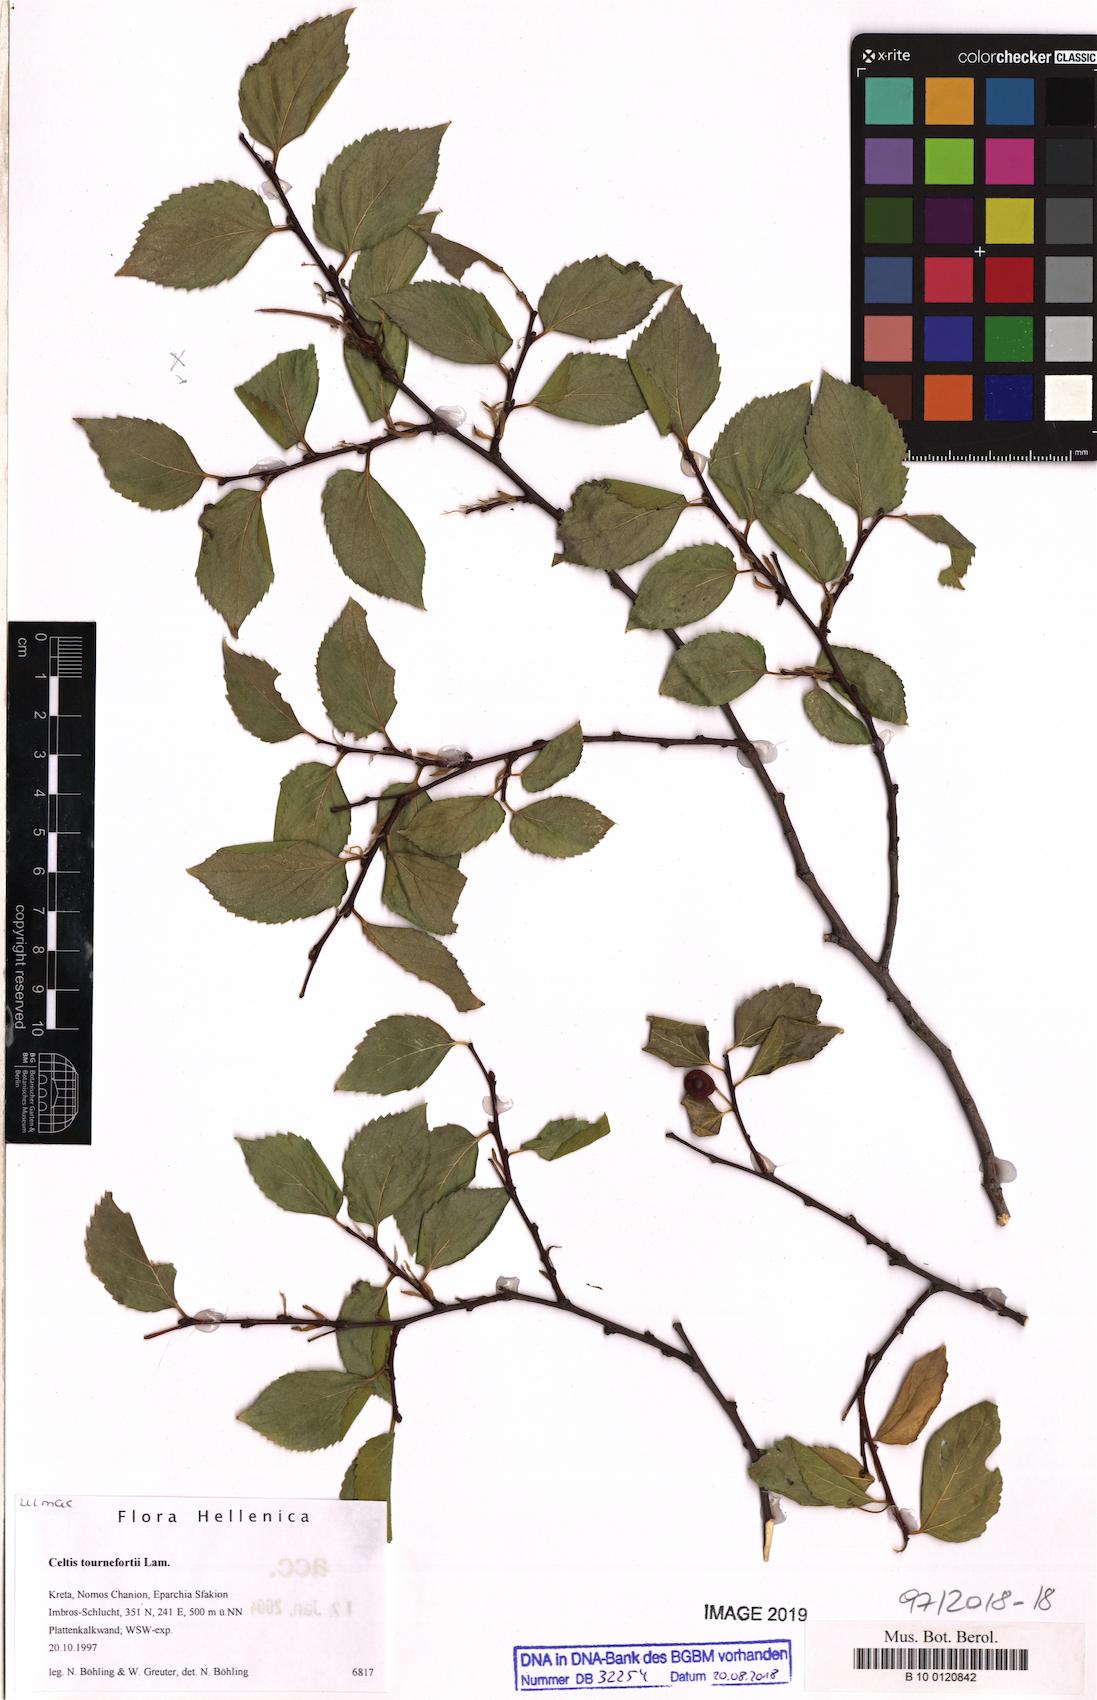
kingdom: Plantae
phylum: Tracheophyta
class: Magnoliopsida
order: Rosales
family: Cannabaceae
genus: Celtis
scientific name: Celtis tournefortii
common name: Oriental hackberry
